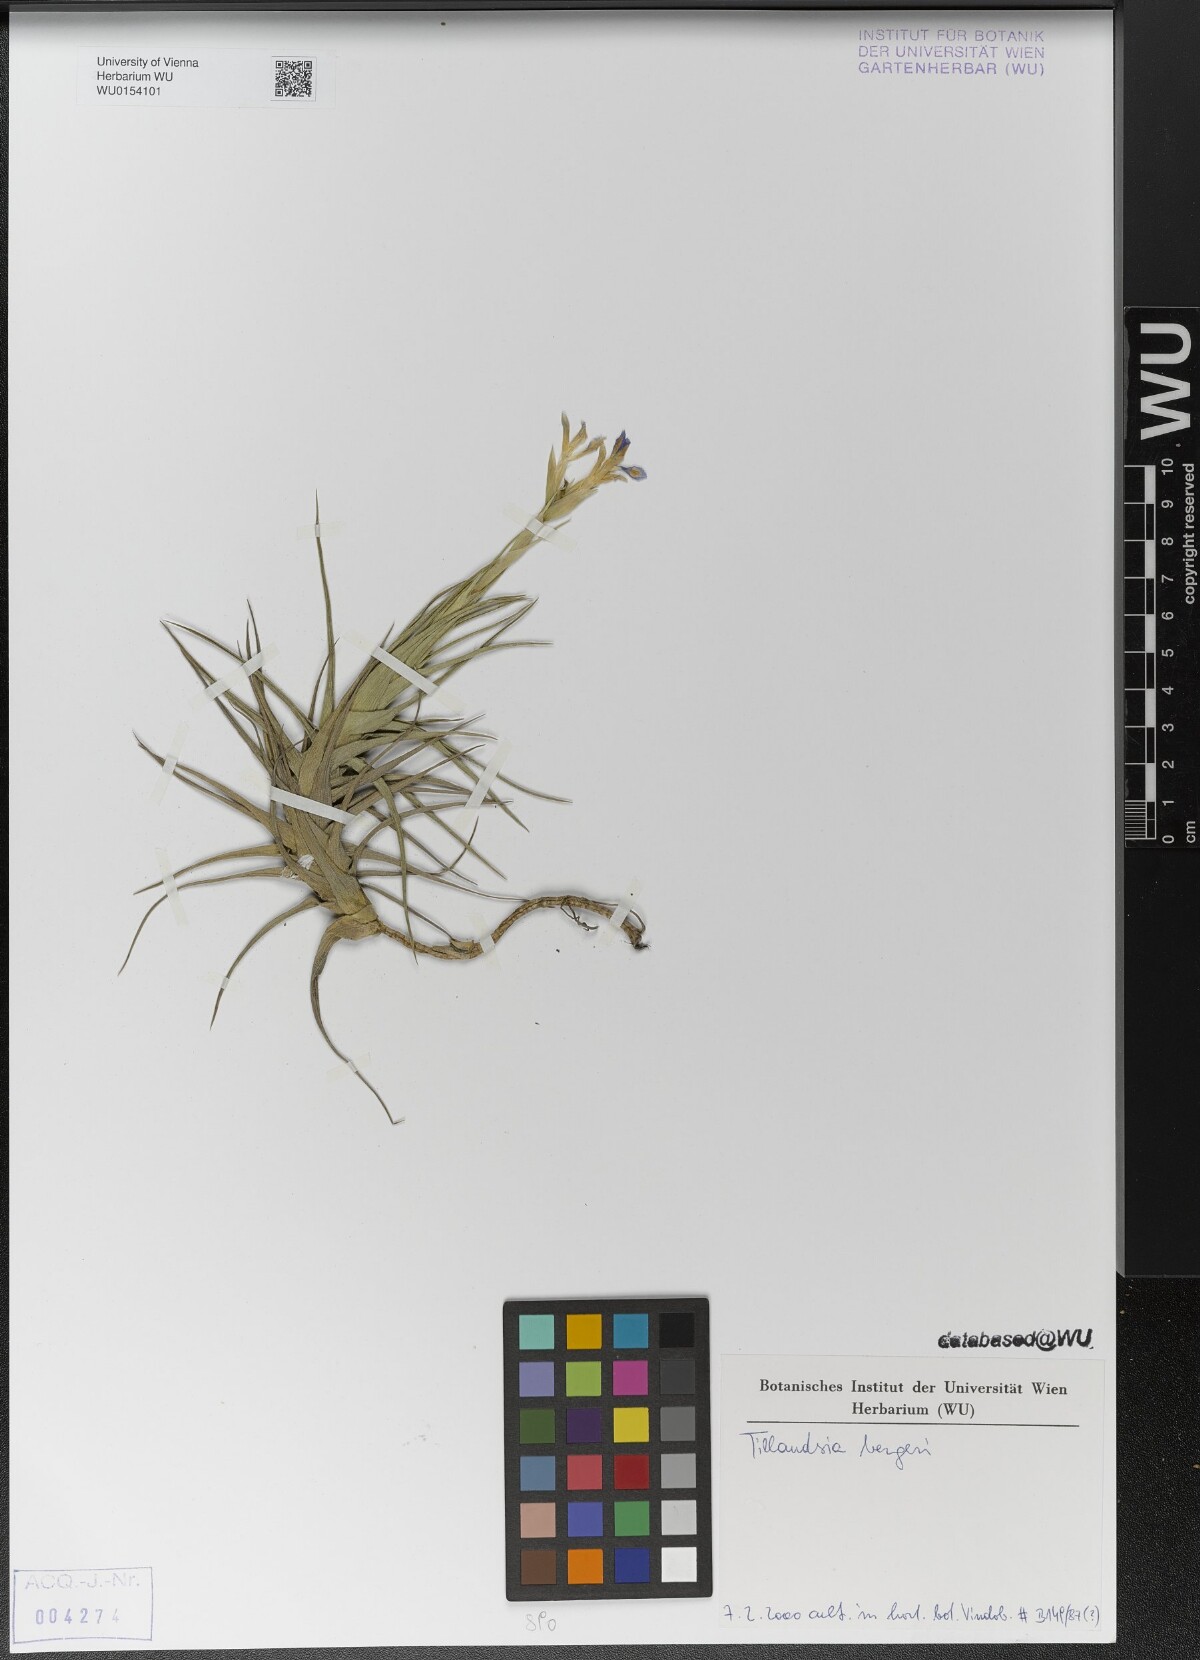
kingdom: Plantae
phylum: Tracheophyta
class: Liliopsida
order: Poales
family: Bromeliaceae
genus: Tillandsia
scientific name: Tillandsia bergeri
